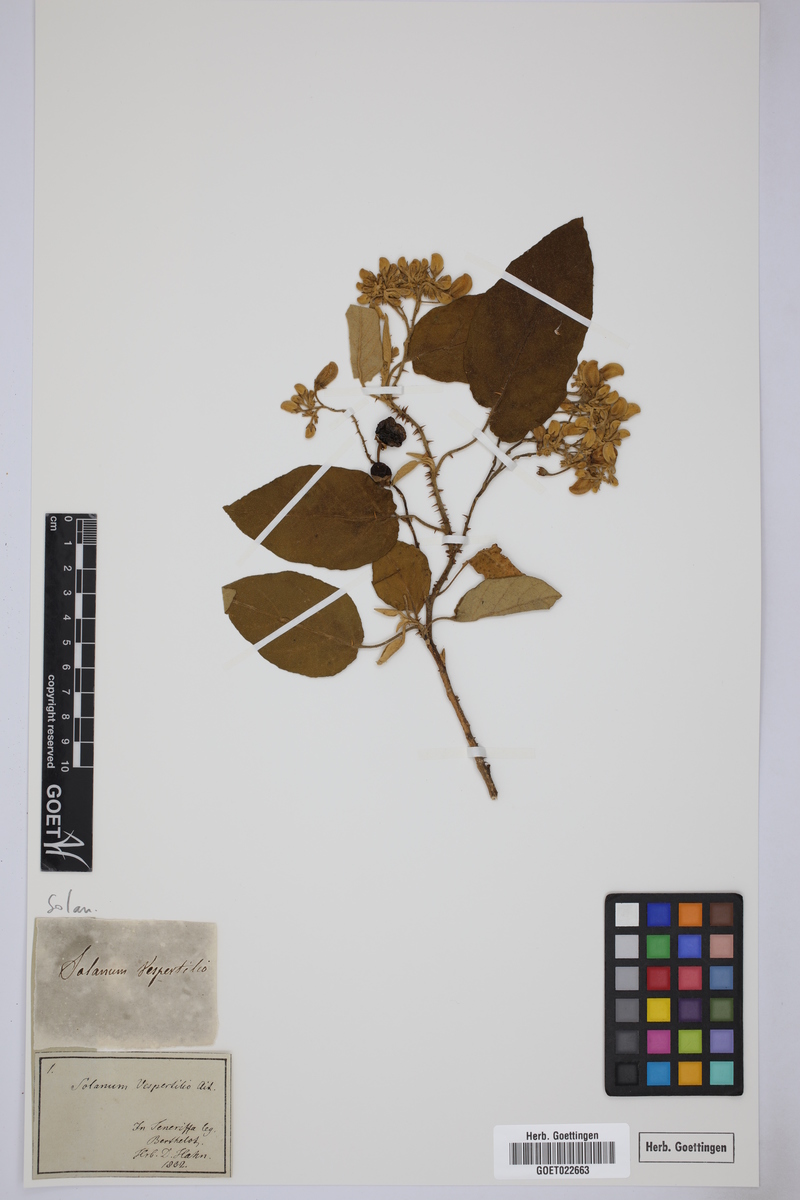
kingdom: Plantae
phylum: Tracheophyta
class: Magnoliopsida
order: Solanales
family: Solanaceae
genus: Solanum
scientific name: Solanum vespertilio
